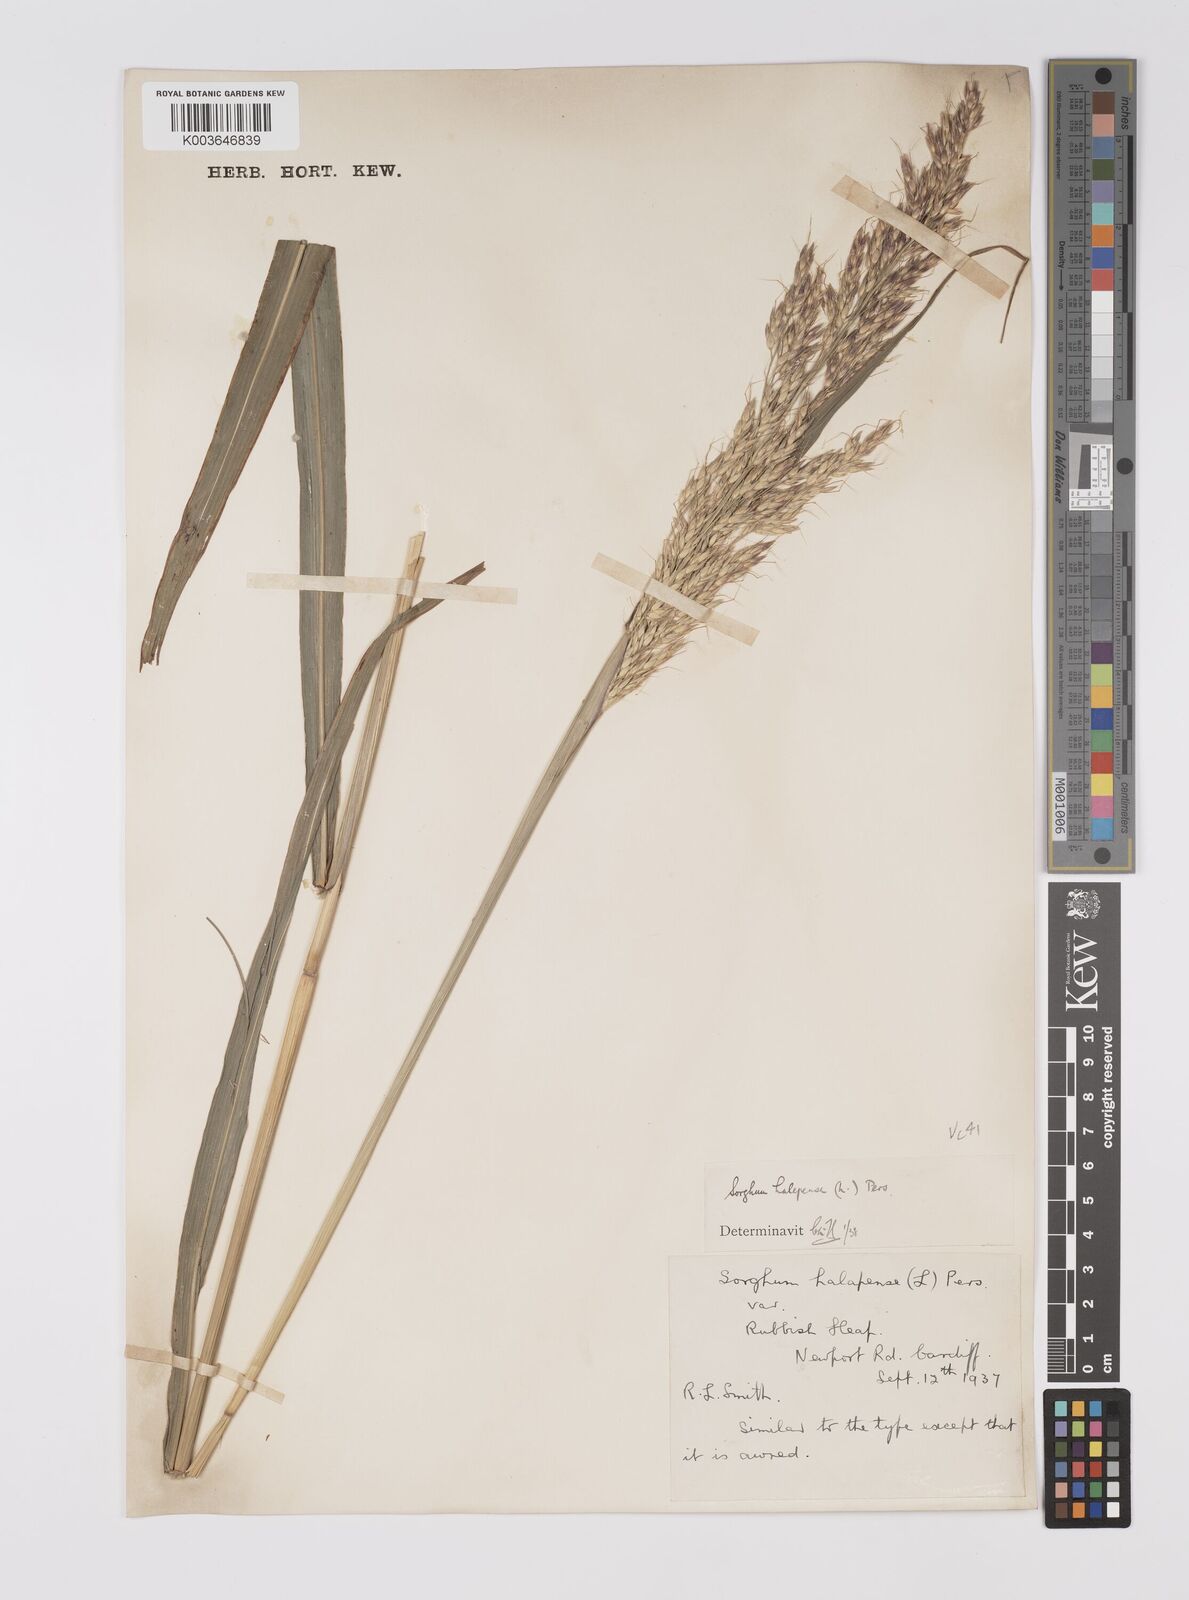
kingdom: Plantae
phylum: Tracheophyta
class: Liliopsida
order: Poales
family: Poaceae
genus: Sorghum
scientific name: Sorghum halepense
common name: Johnson-grass
